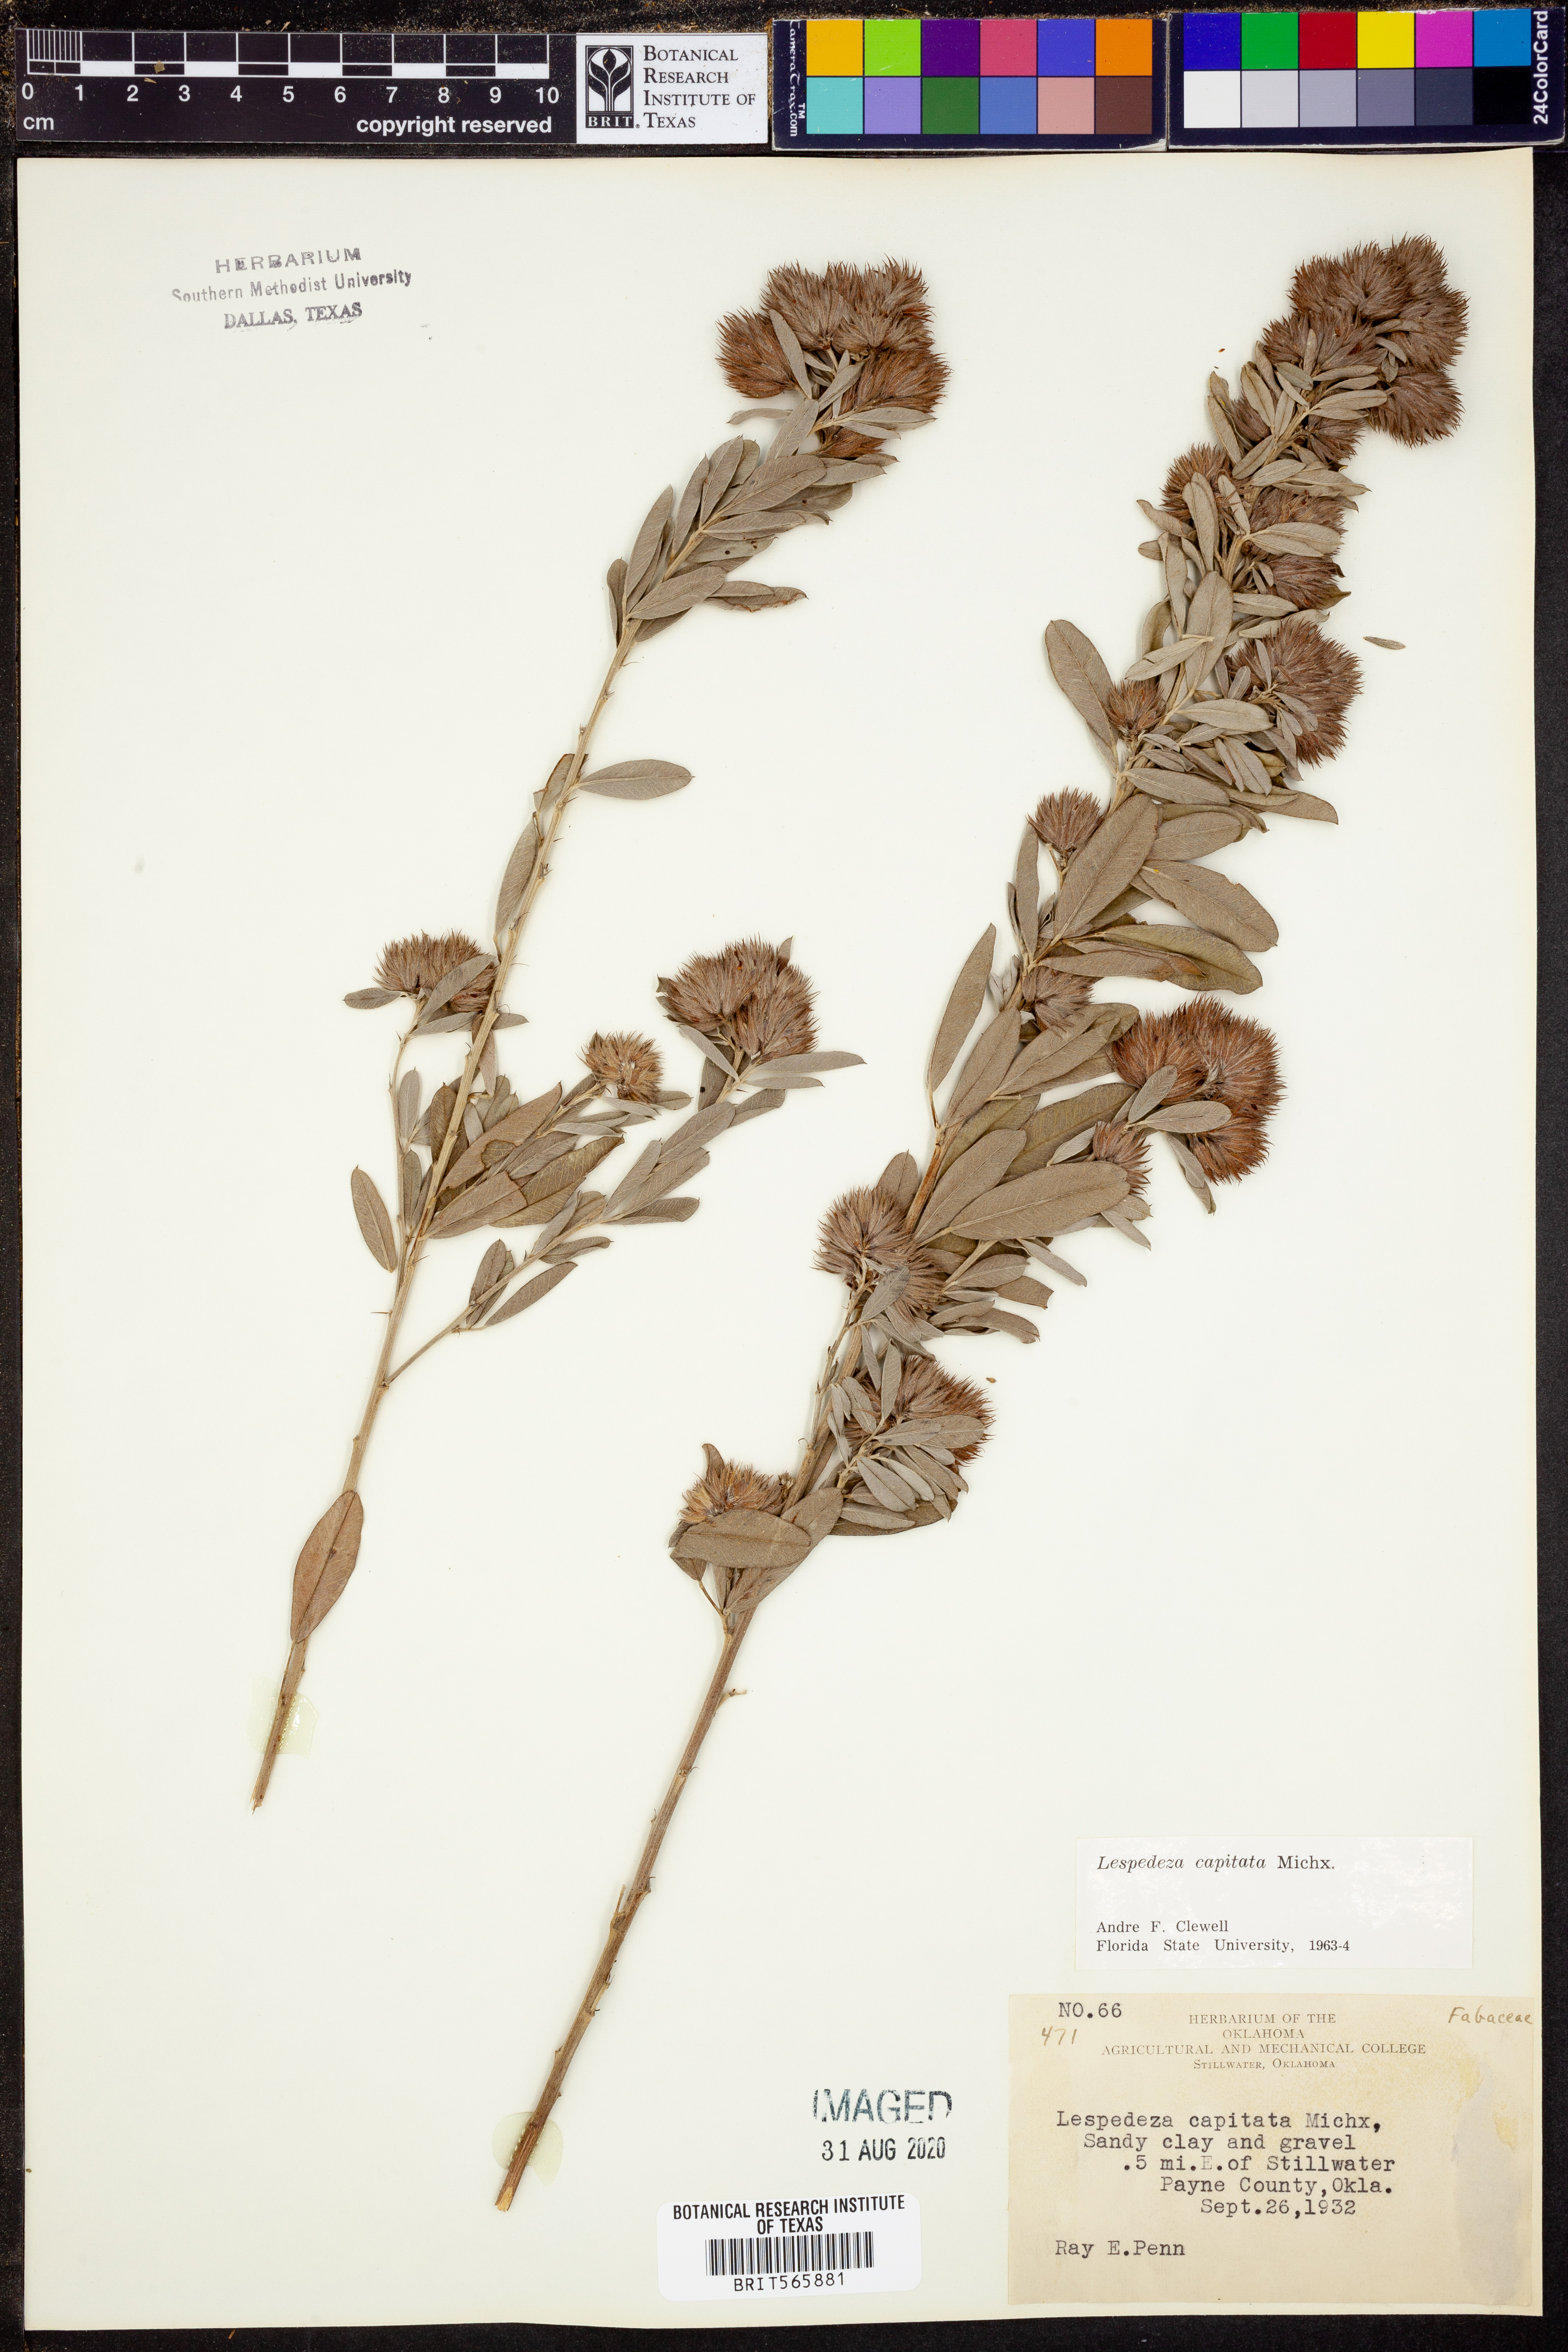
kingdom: Plantae
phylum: Tracheophyta
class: Magnoliopsida
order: Fabales
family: Fabaceae
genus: Lespedeza
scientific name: Lespedeza capitata
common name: Dusty clover
